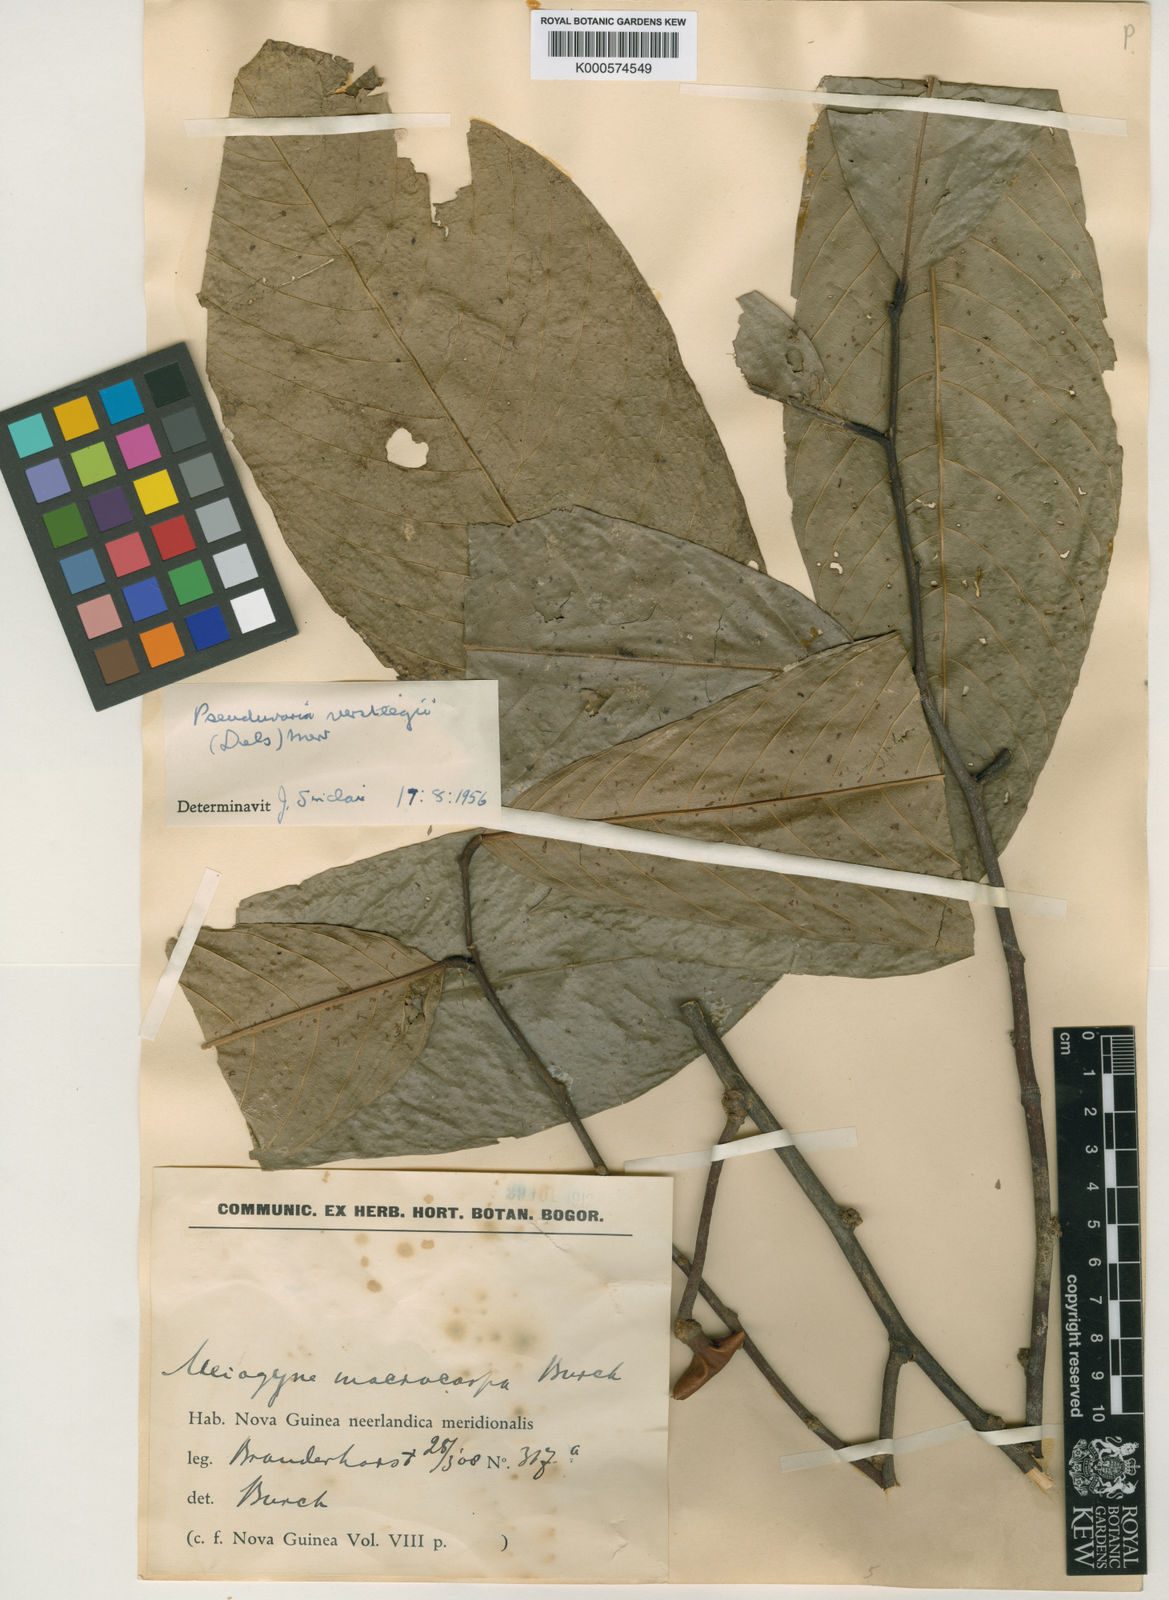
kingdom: Plantae
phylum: Tracheophyta
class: Magnoliopsida
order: Magnoliales
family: Annonaceae
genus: Pseuduvaria
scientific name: Pseuduvaria macrocarpa
